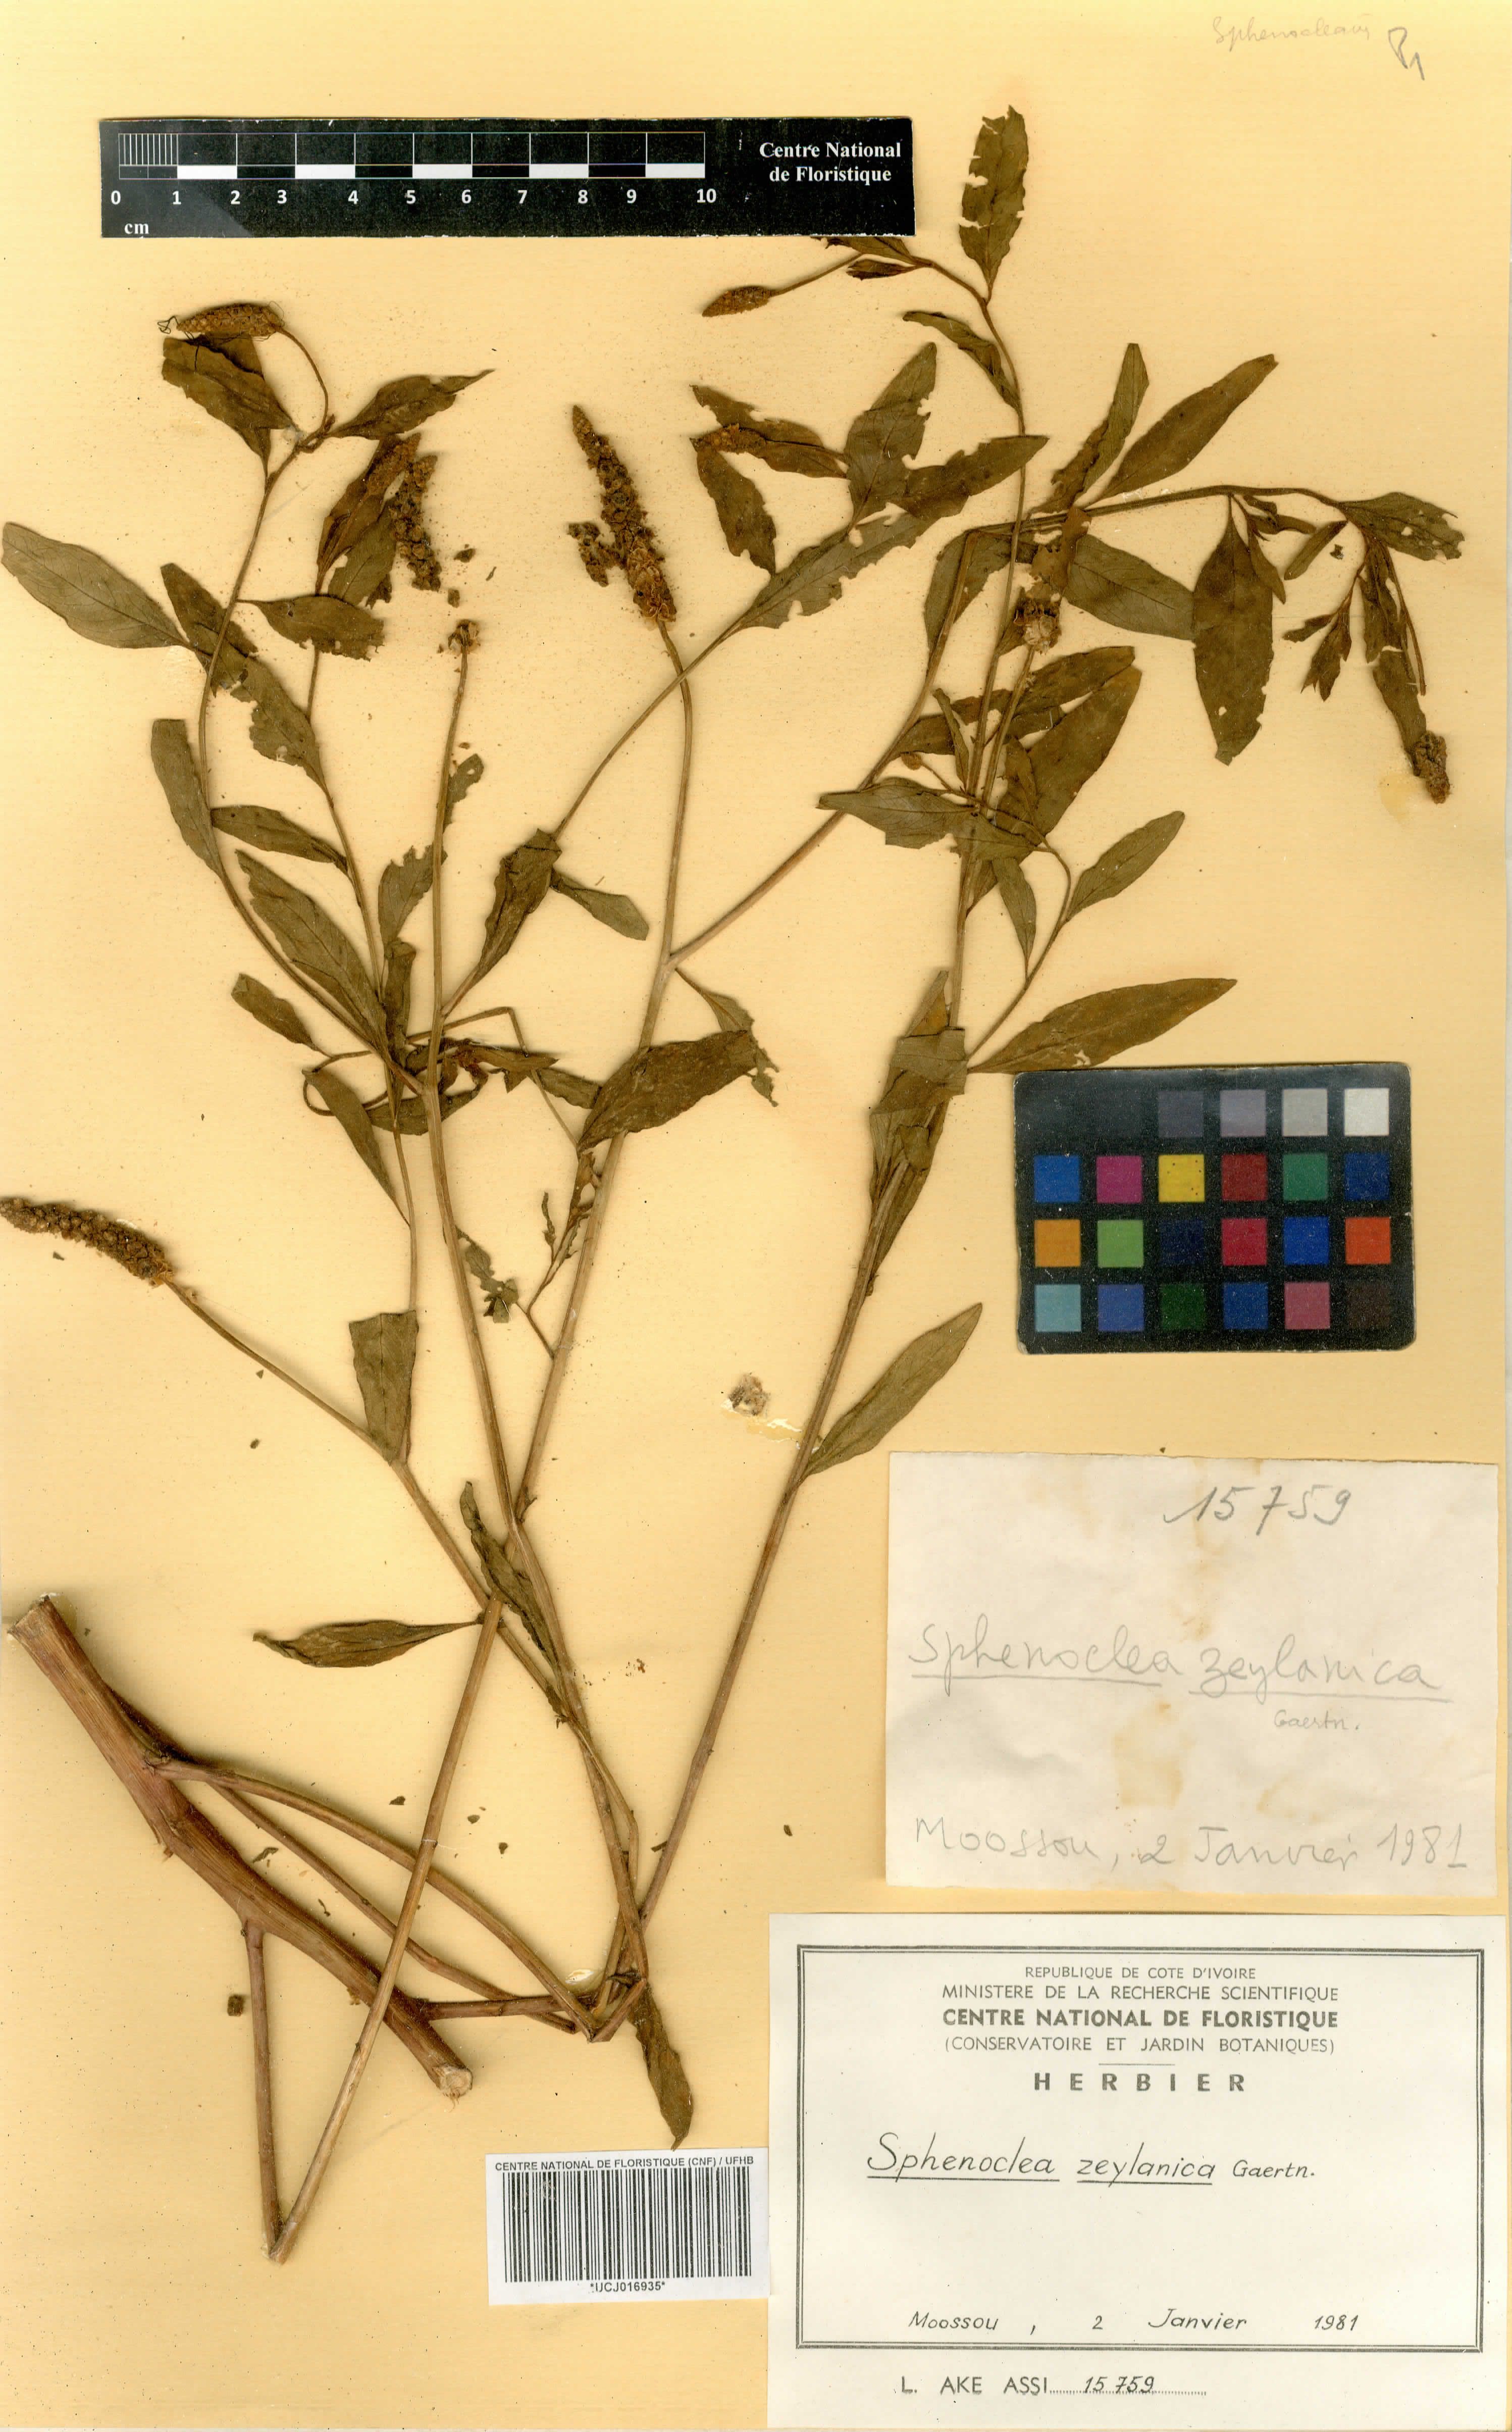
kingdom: Plantae
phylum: Tracheophyta
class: Magnoliopsida
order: Solanales
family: Sphenocleaceae
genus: Sphenoclea
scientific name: Sphenoclea zeylanica
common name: Chickenspike
